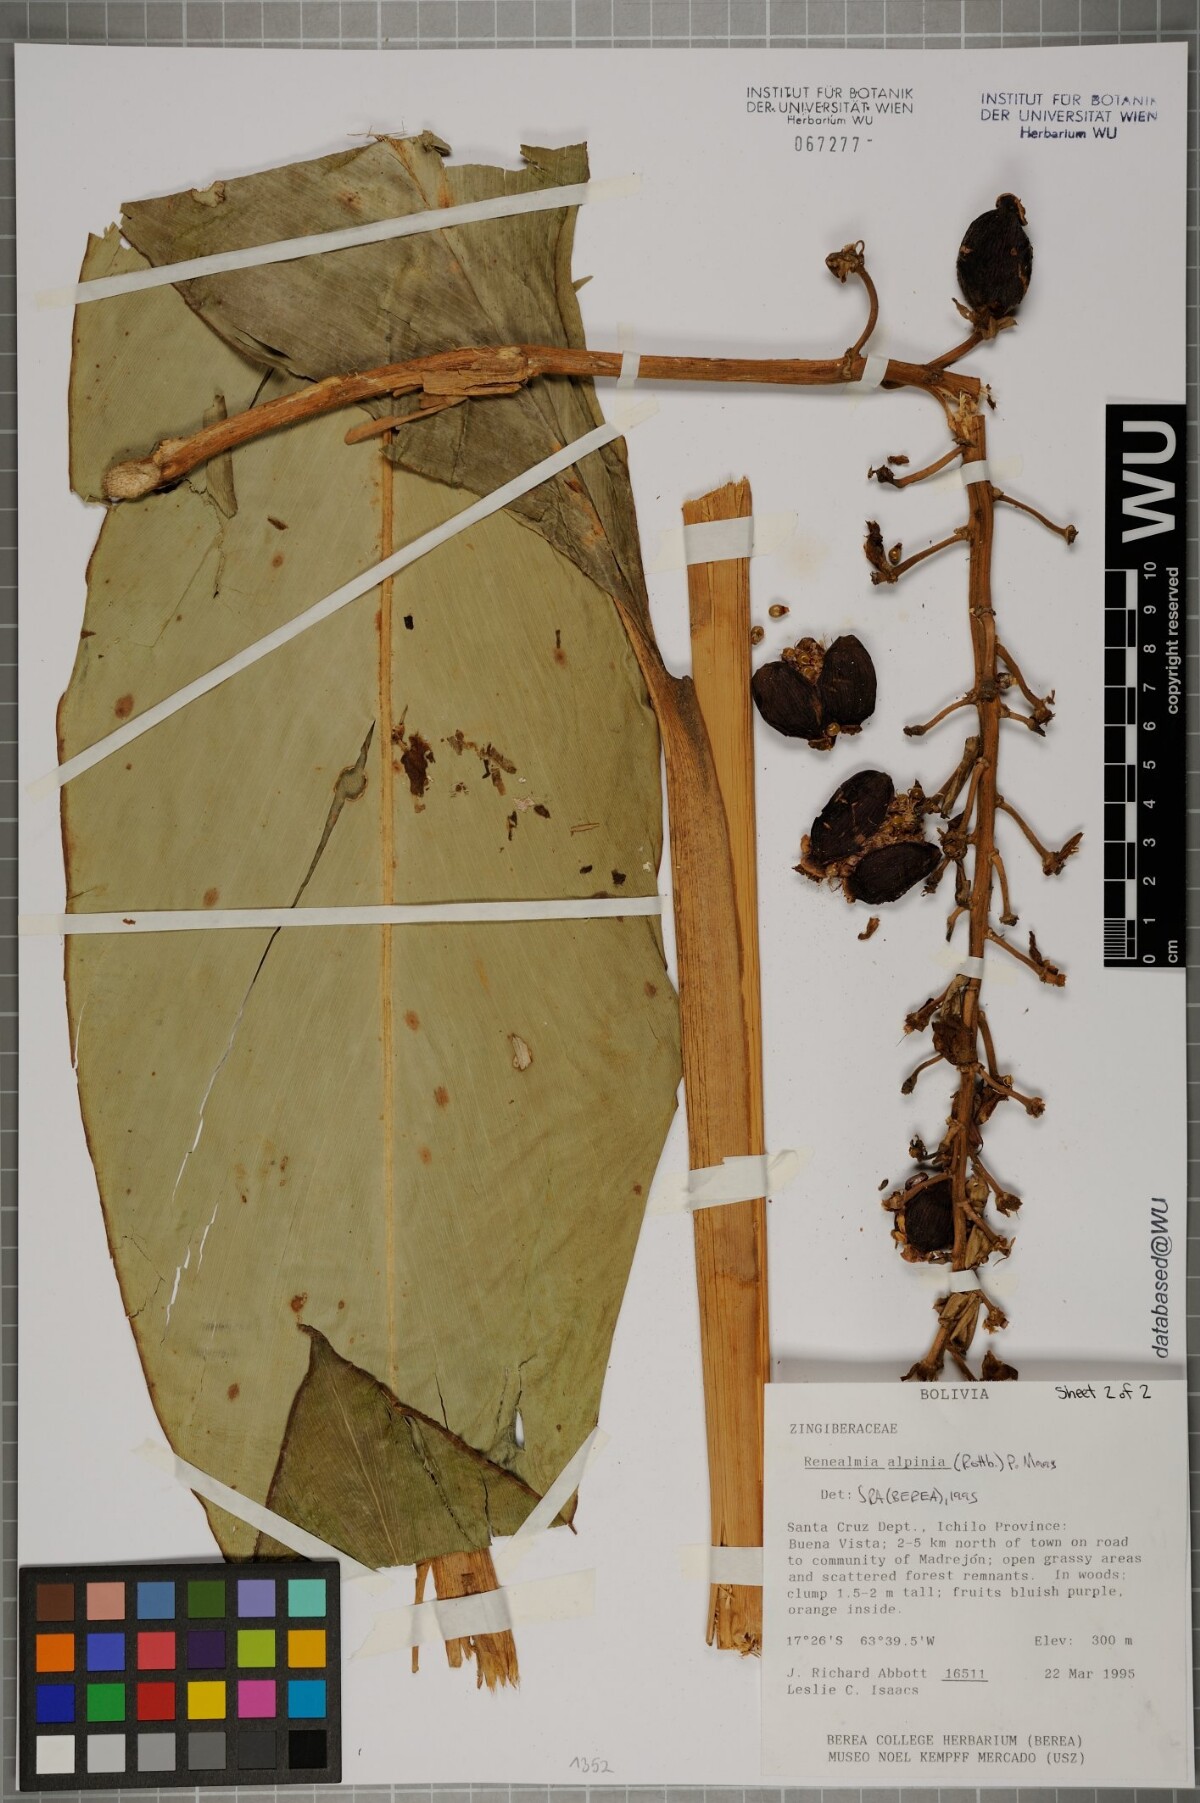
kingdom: Plantae
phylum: Tracheophyta
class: Liliopsida
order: Zingiberales
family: Zingiberaceae
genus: Renealmia
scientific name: Renealmia alpinia
